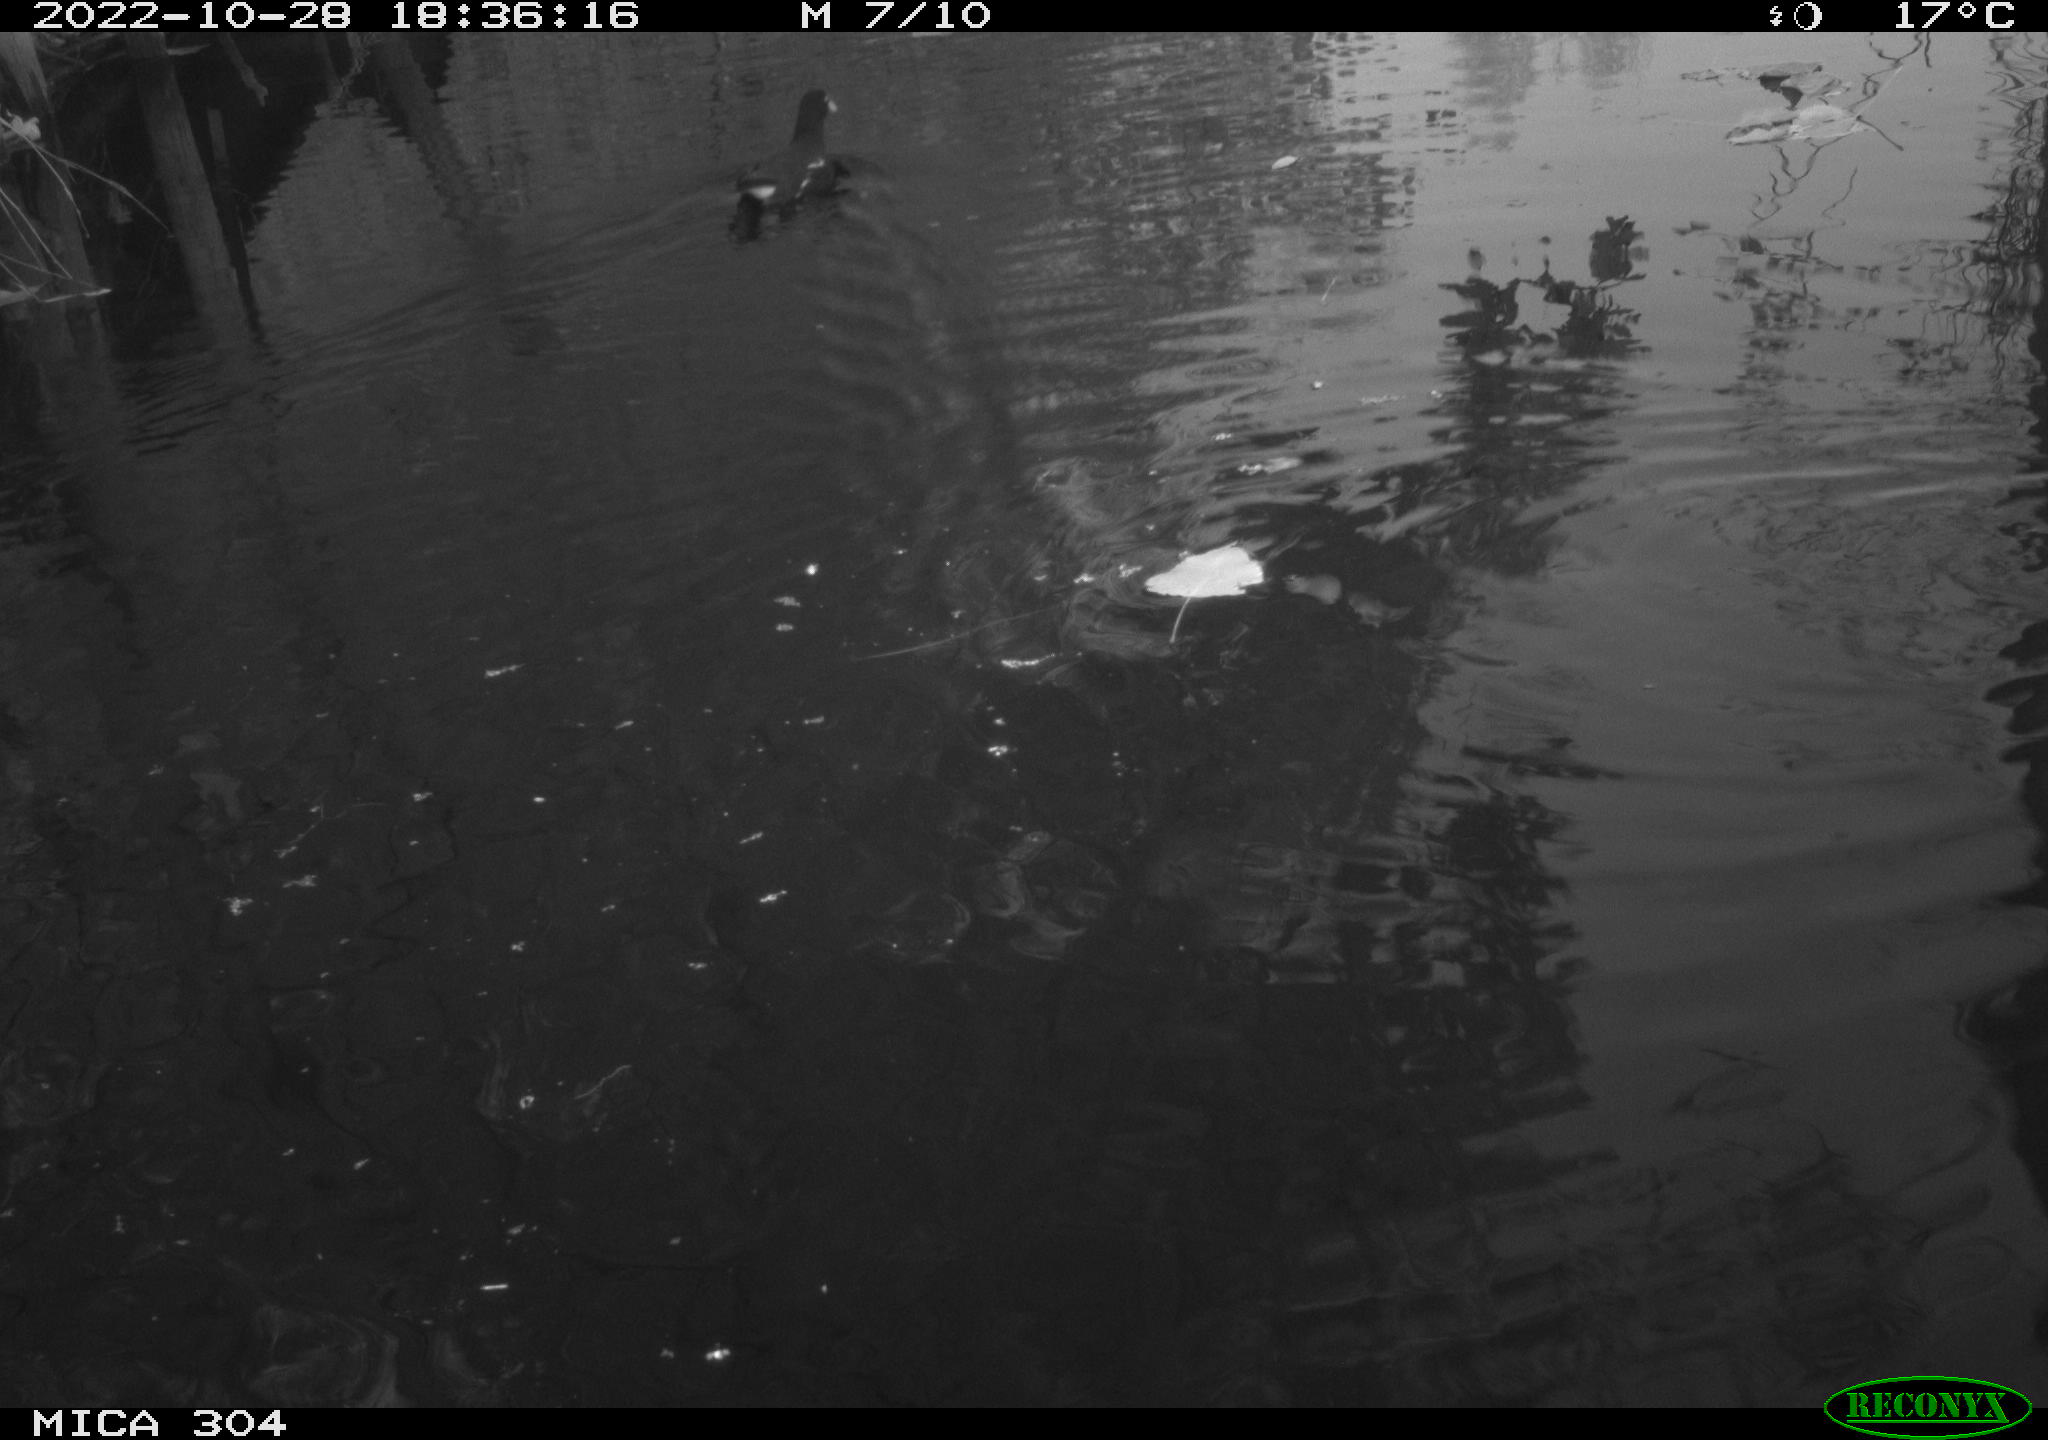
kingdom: Animalia
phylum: Chordata
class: Aves
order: Gruiformes
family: Rallidae
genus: Gallinula
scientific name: Gallinula chloropus
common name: Common moorhen
